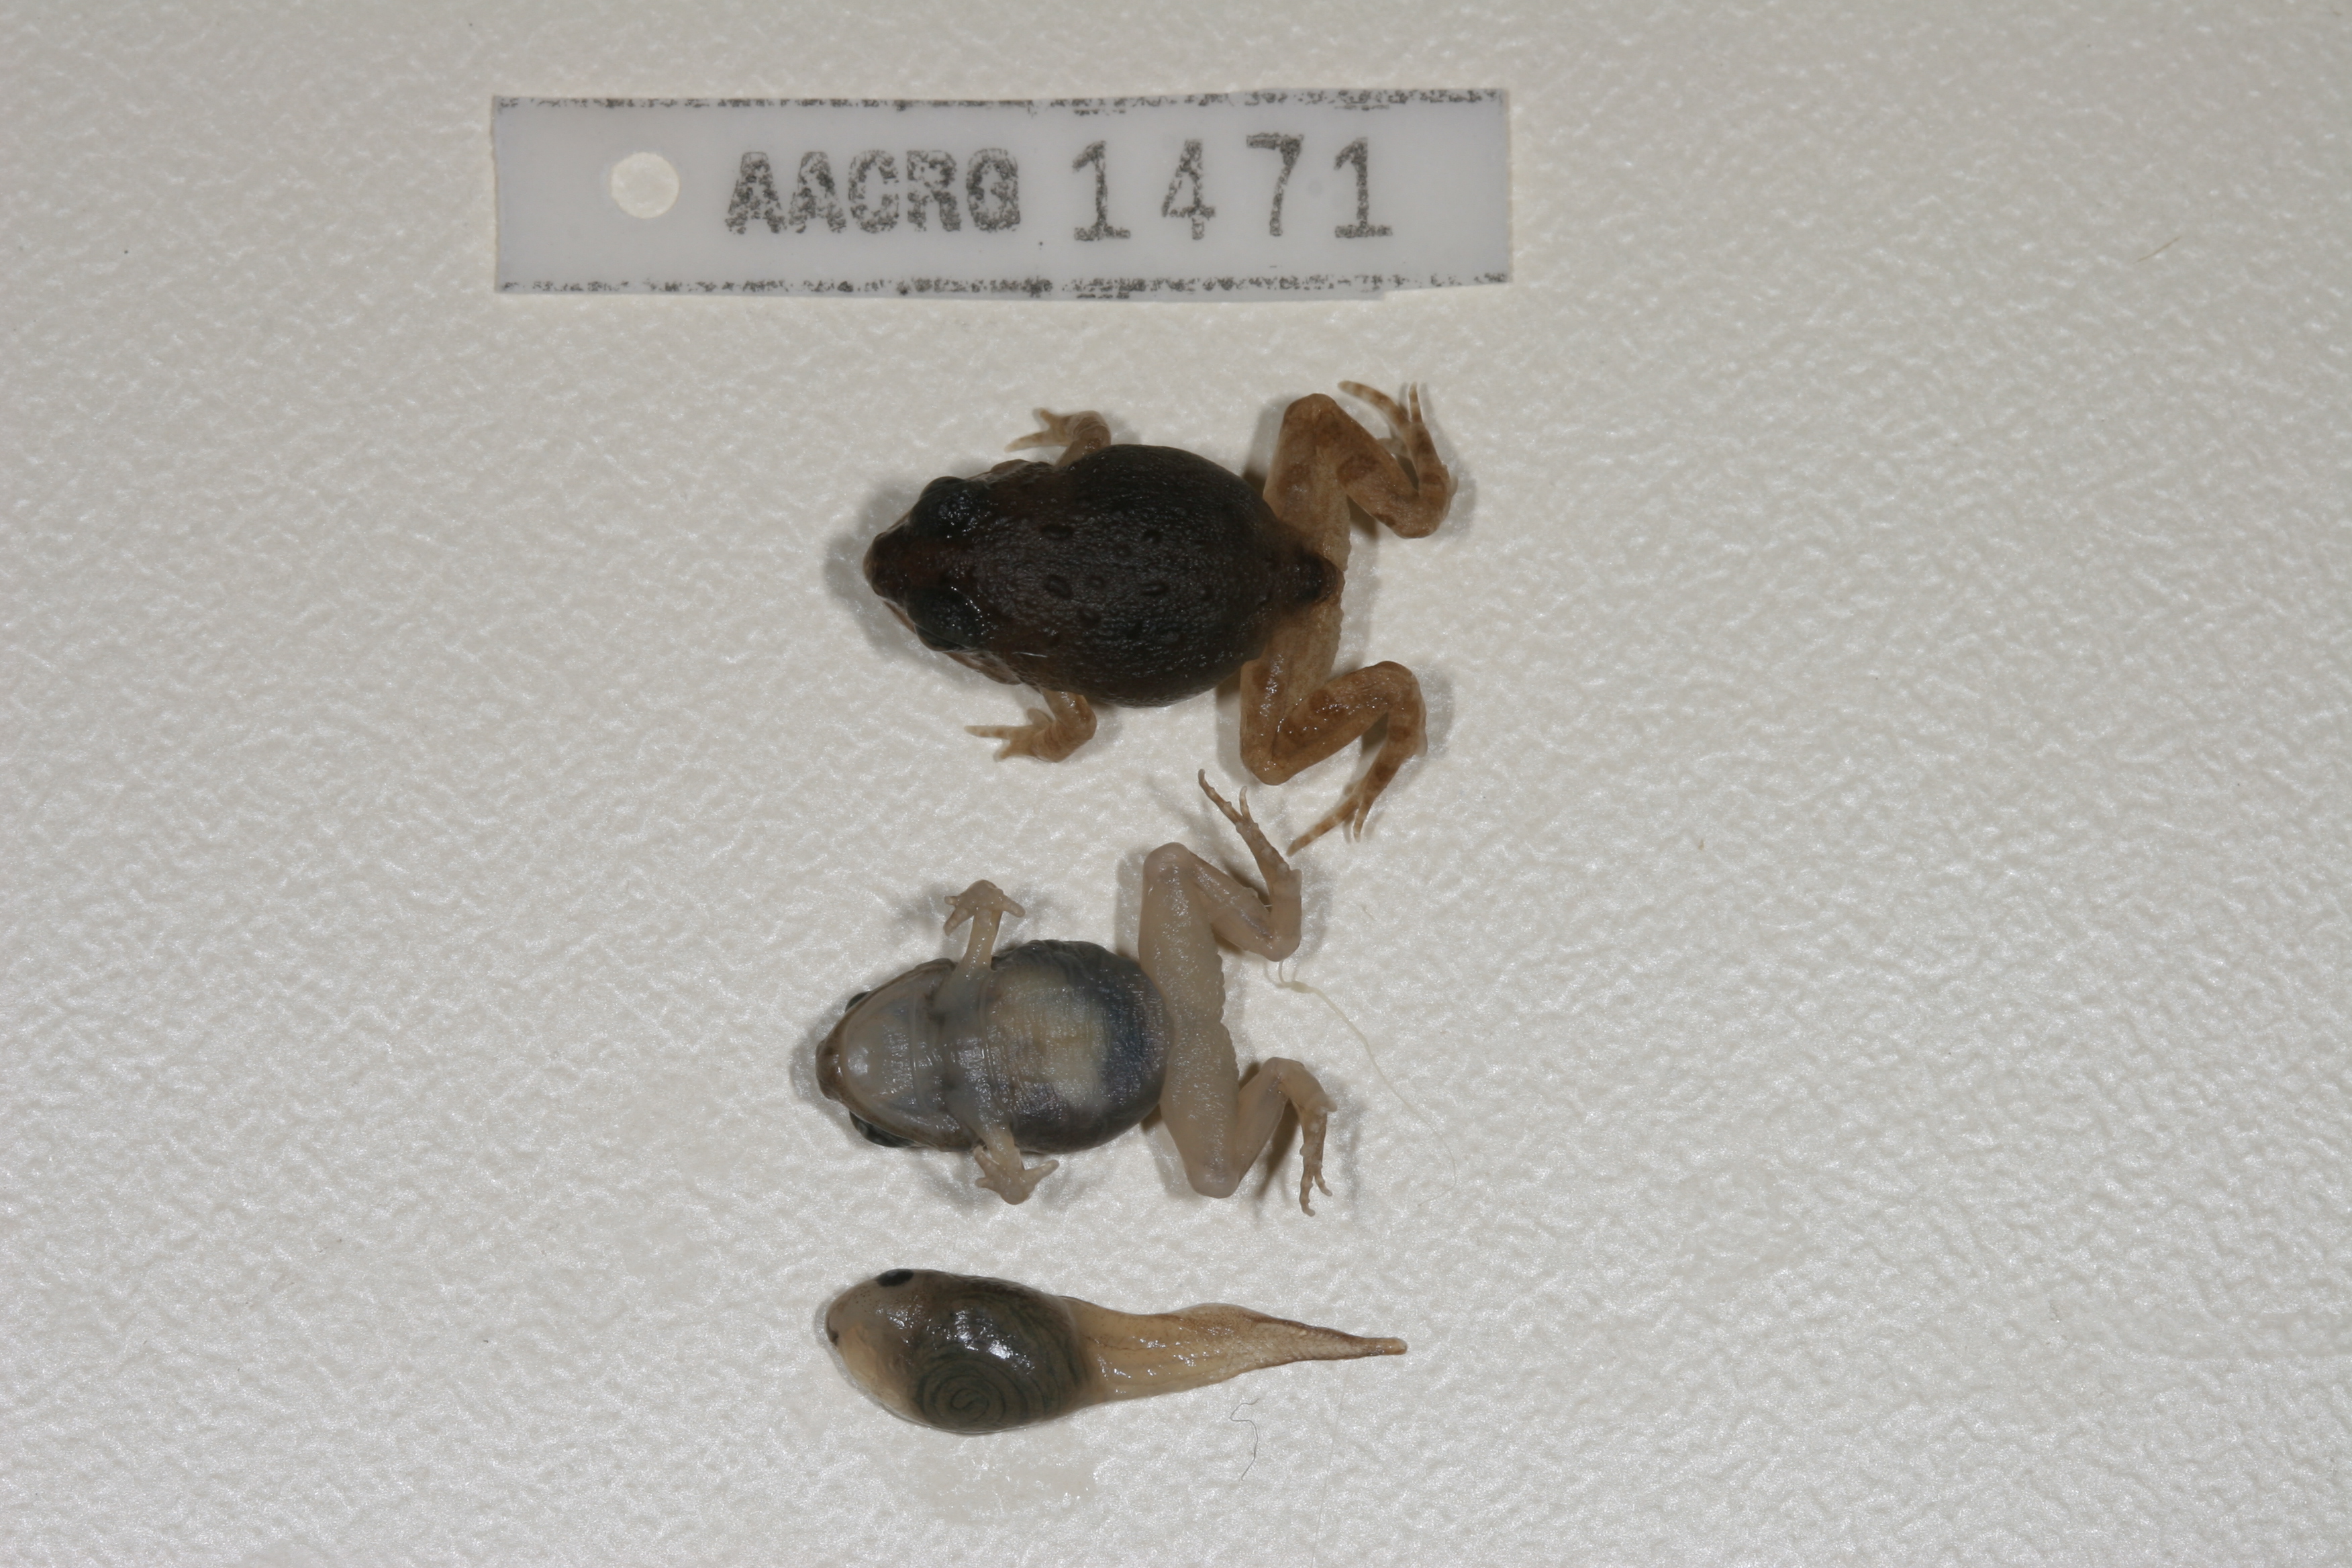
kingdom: Animalia
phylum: Chordata
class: Amphibia
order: Anura
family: Pyxicephalidae
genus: Tomopterna
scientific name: Tomopterna cryptotis
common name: Catequero bullfrog
